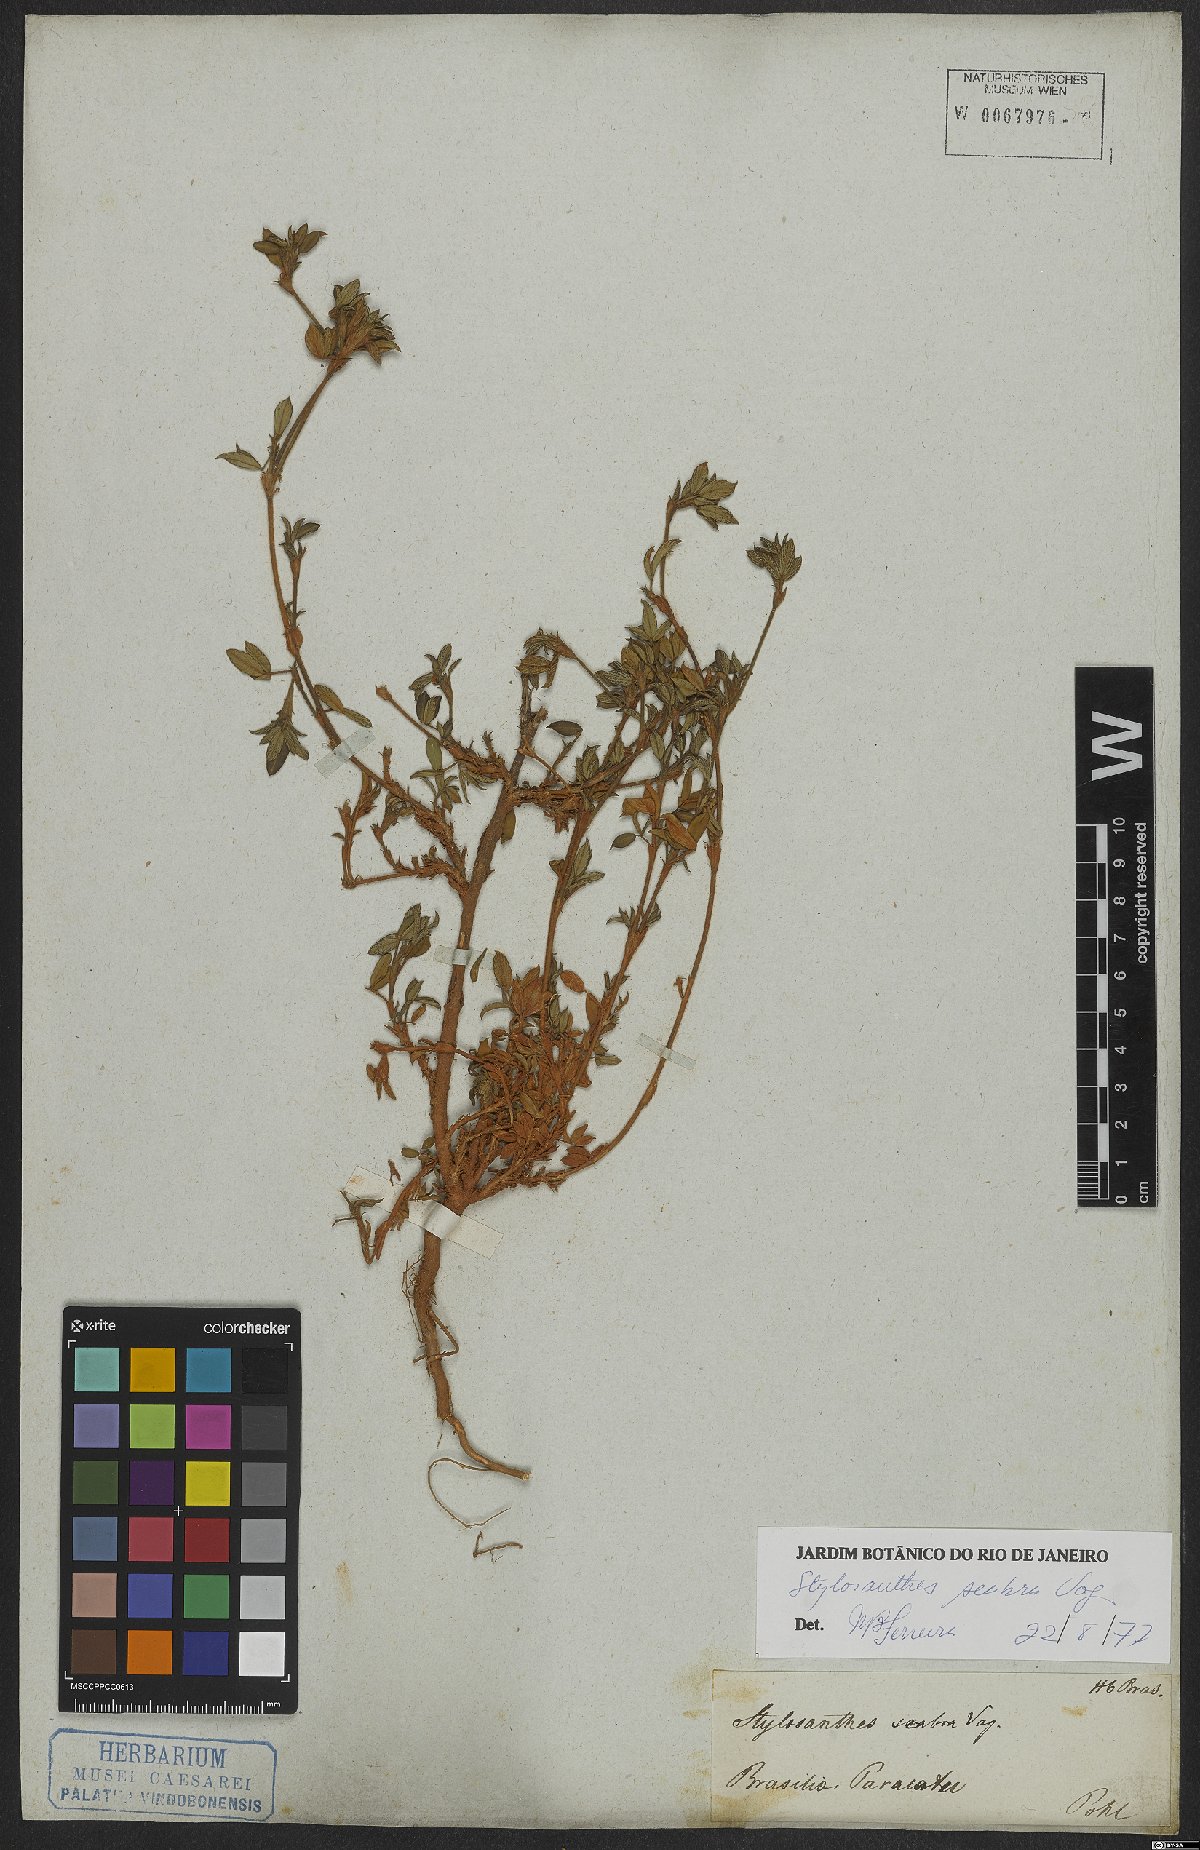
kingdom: Plantae
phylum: Tracheophyta
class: Magnoliopsida
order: Fabales
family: Fabaceae
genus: Stylosanthes
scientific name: Stylosanthes scabra
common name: Pencilflower
